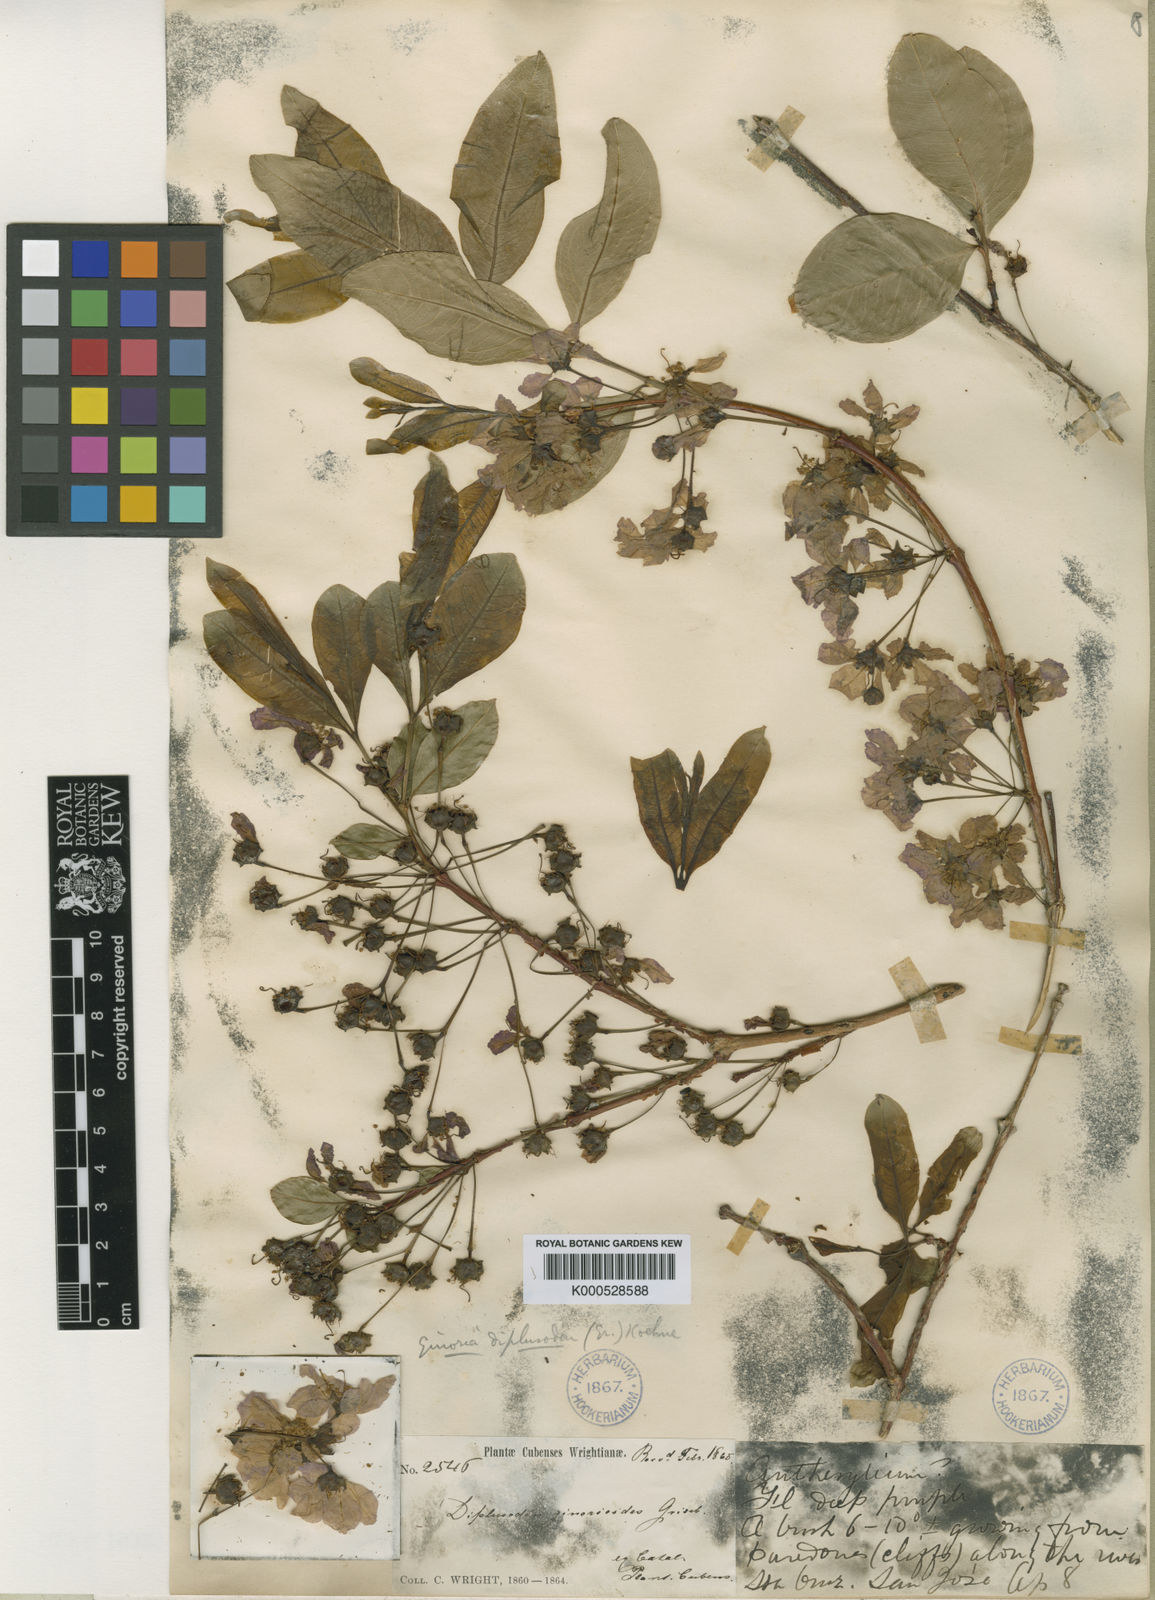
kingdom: Plantae
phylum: Tracheophyta
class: Magnoliopsida
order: Myrtales
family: Lythraceae
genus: Ginoria
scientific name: Ginoria ginorioides
